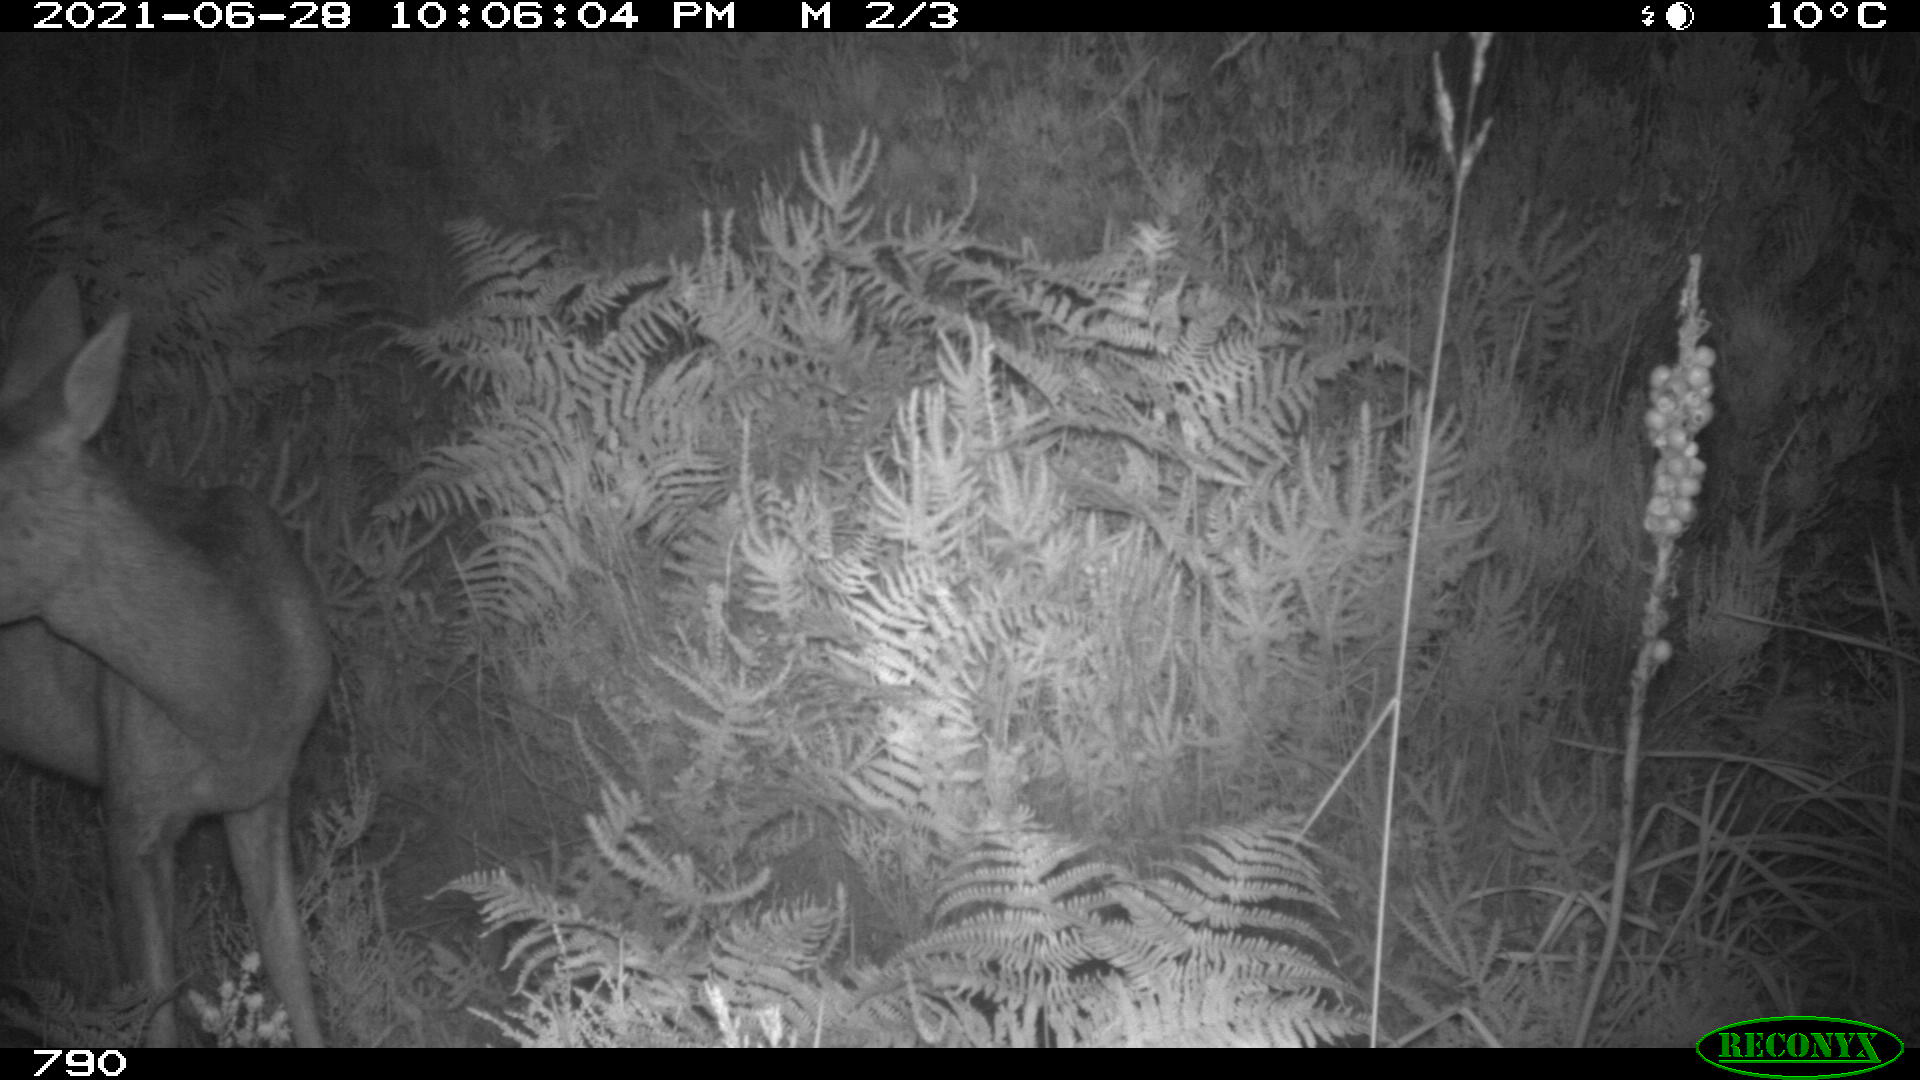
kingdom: Animalia
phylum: Chordata
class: Mammalia
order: Artiodactyla
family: Cervidae
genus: Capreolus
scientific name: Capreolus capreolus
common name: Western roe deer
